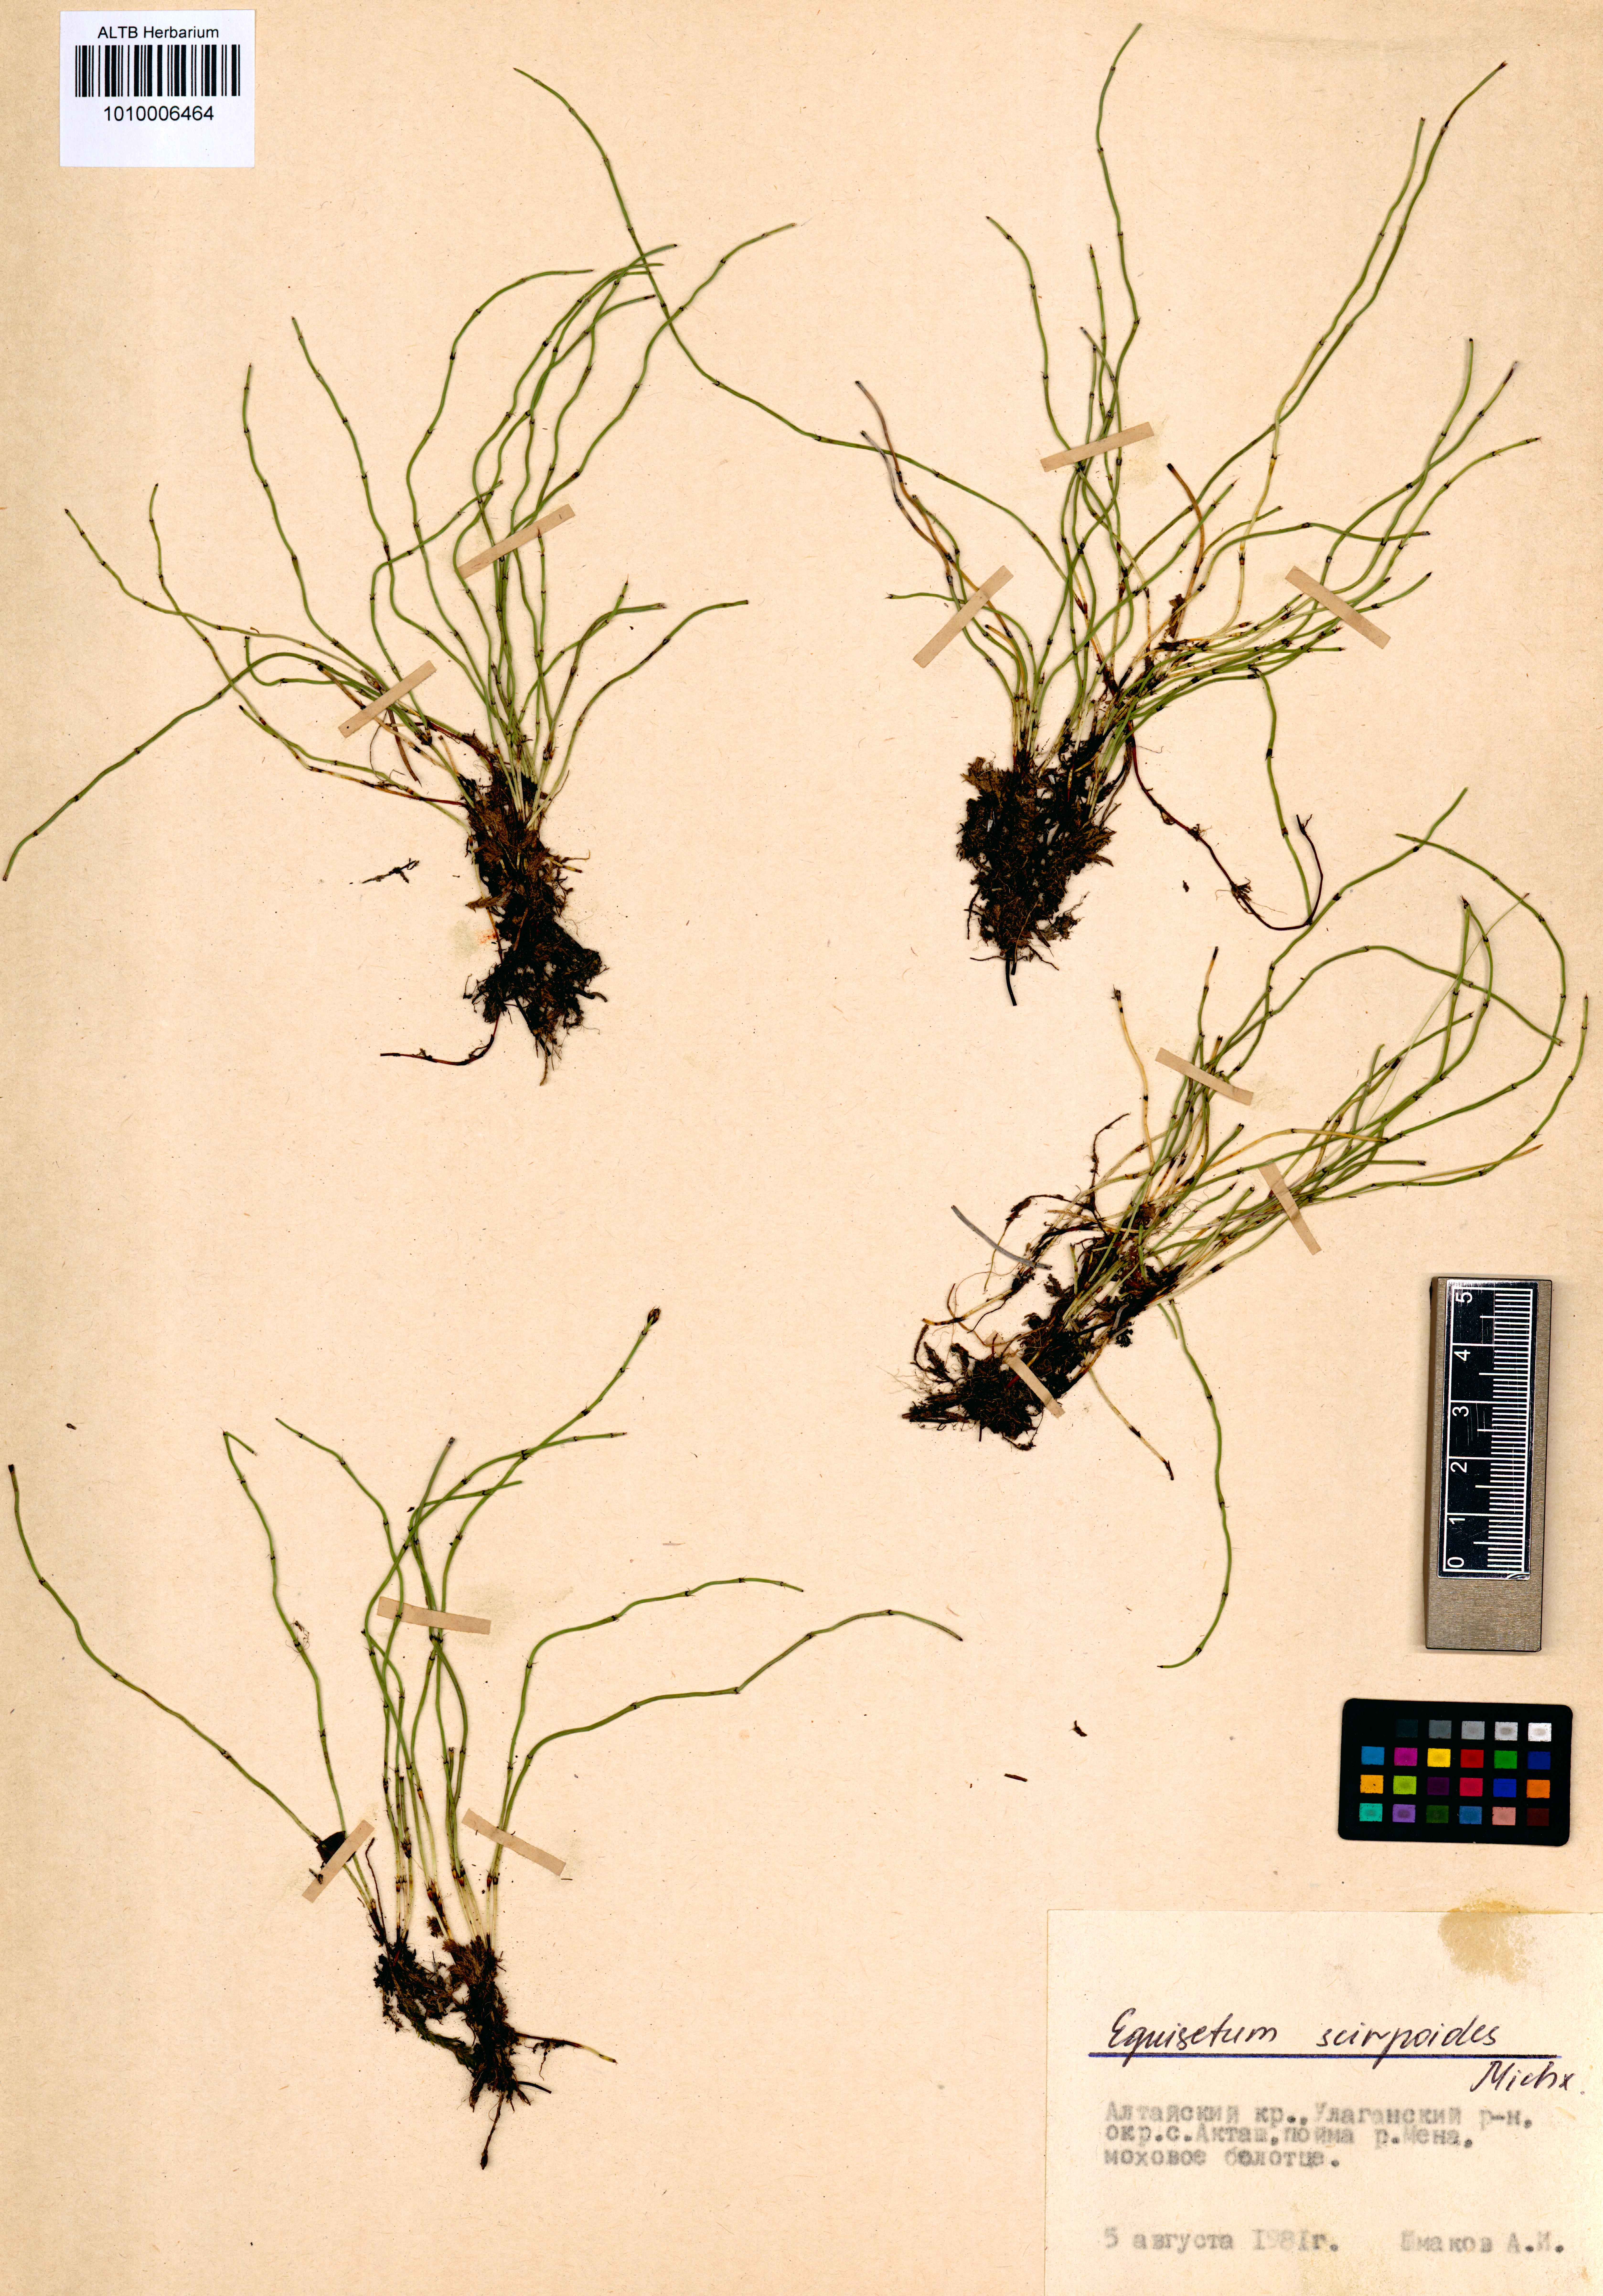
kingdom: Plantae
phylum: Tracheophyta
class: Polypodiopsida
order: Equisetales
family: Equisetaceae
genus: Equisetum
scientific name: Equisetum scirpoides
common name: Delicate horsetail
